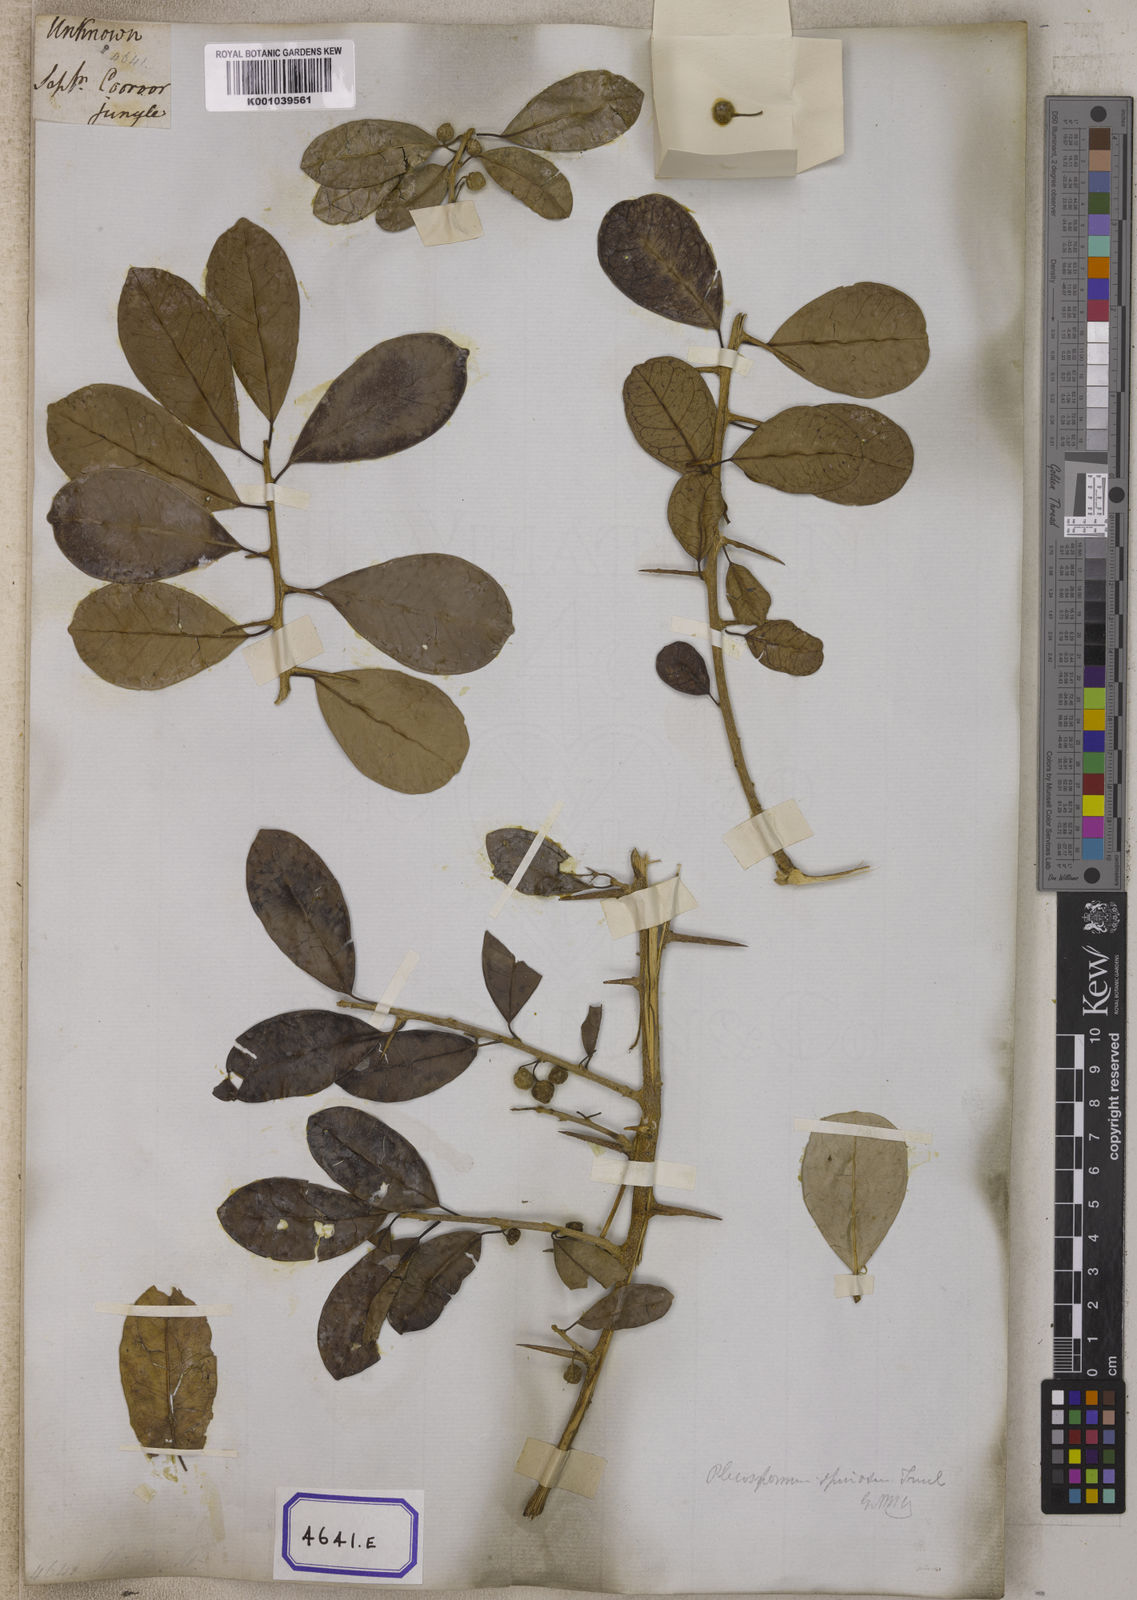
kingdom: Plantae
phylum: Tracheophyta
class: Magnoliopsida
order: Rosales
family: Moraceae
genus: Taxotrophis
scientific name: Taxotrophis taxoides
